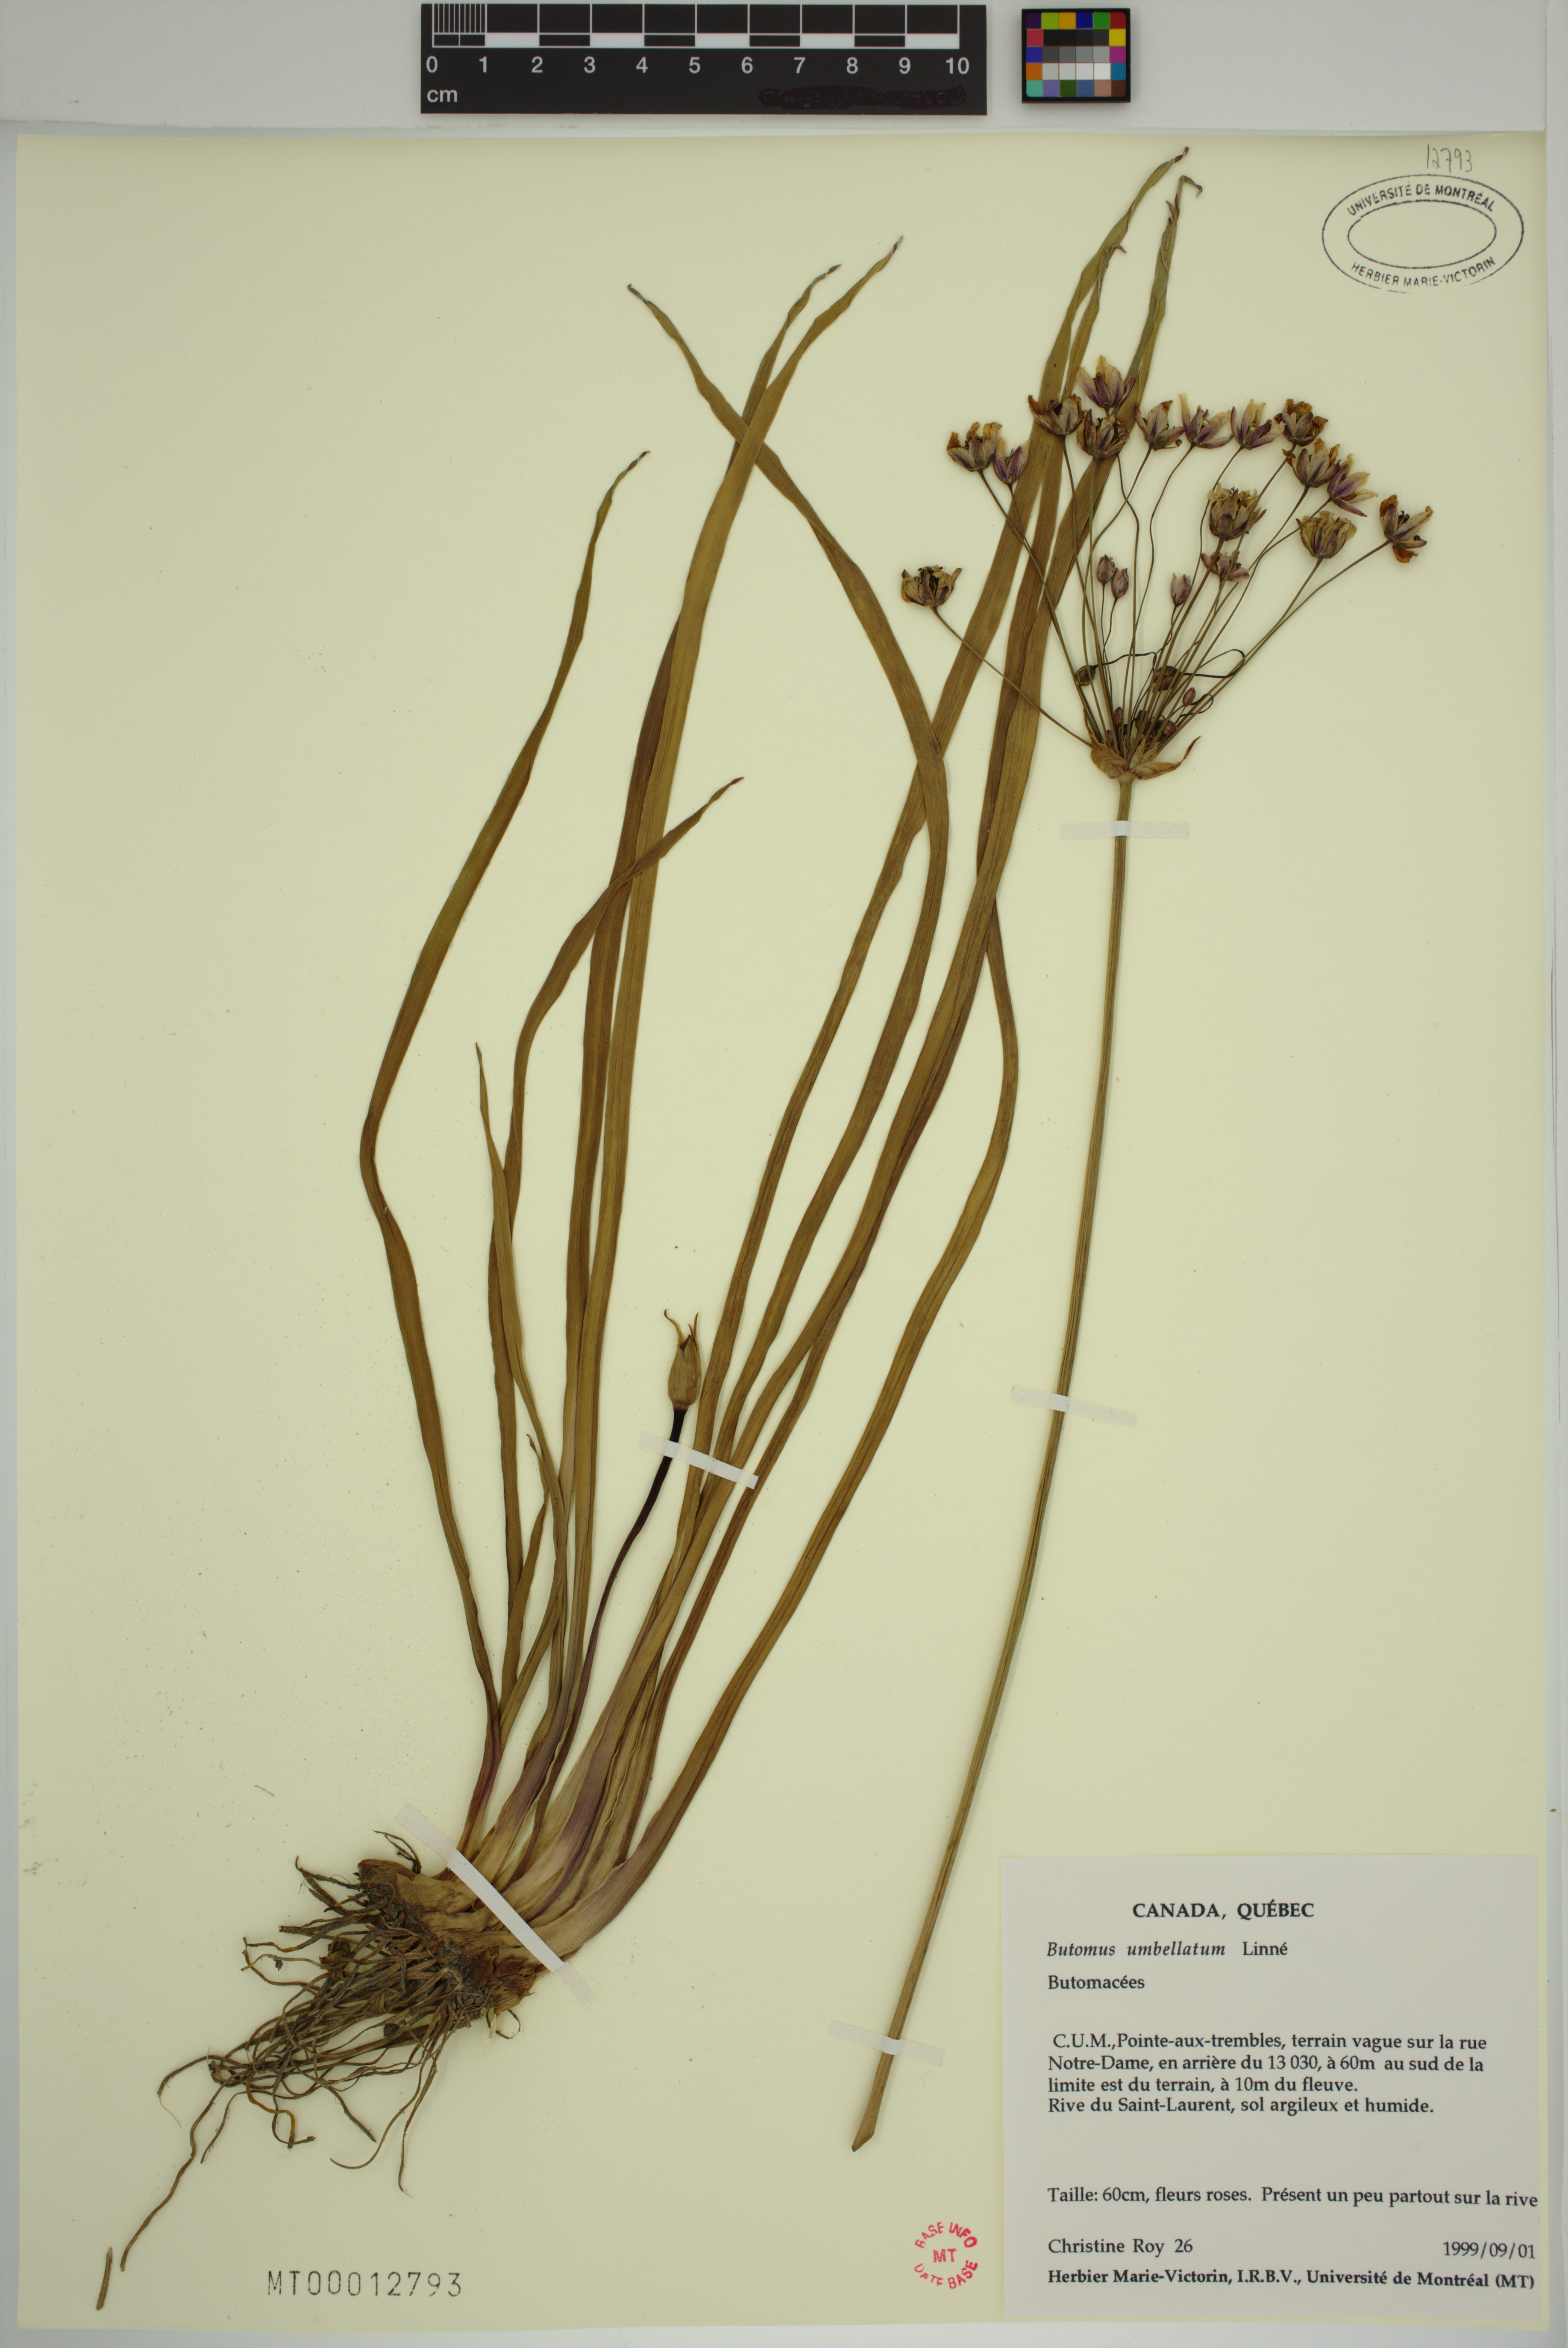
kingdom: Plantae
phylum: Tracheophyta
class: Liliopsida
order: Alismatales
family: Butomaceae
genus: Butomus
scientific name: Butomus umbellatus
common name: Flowering-rush
